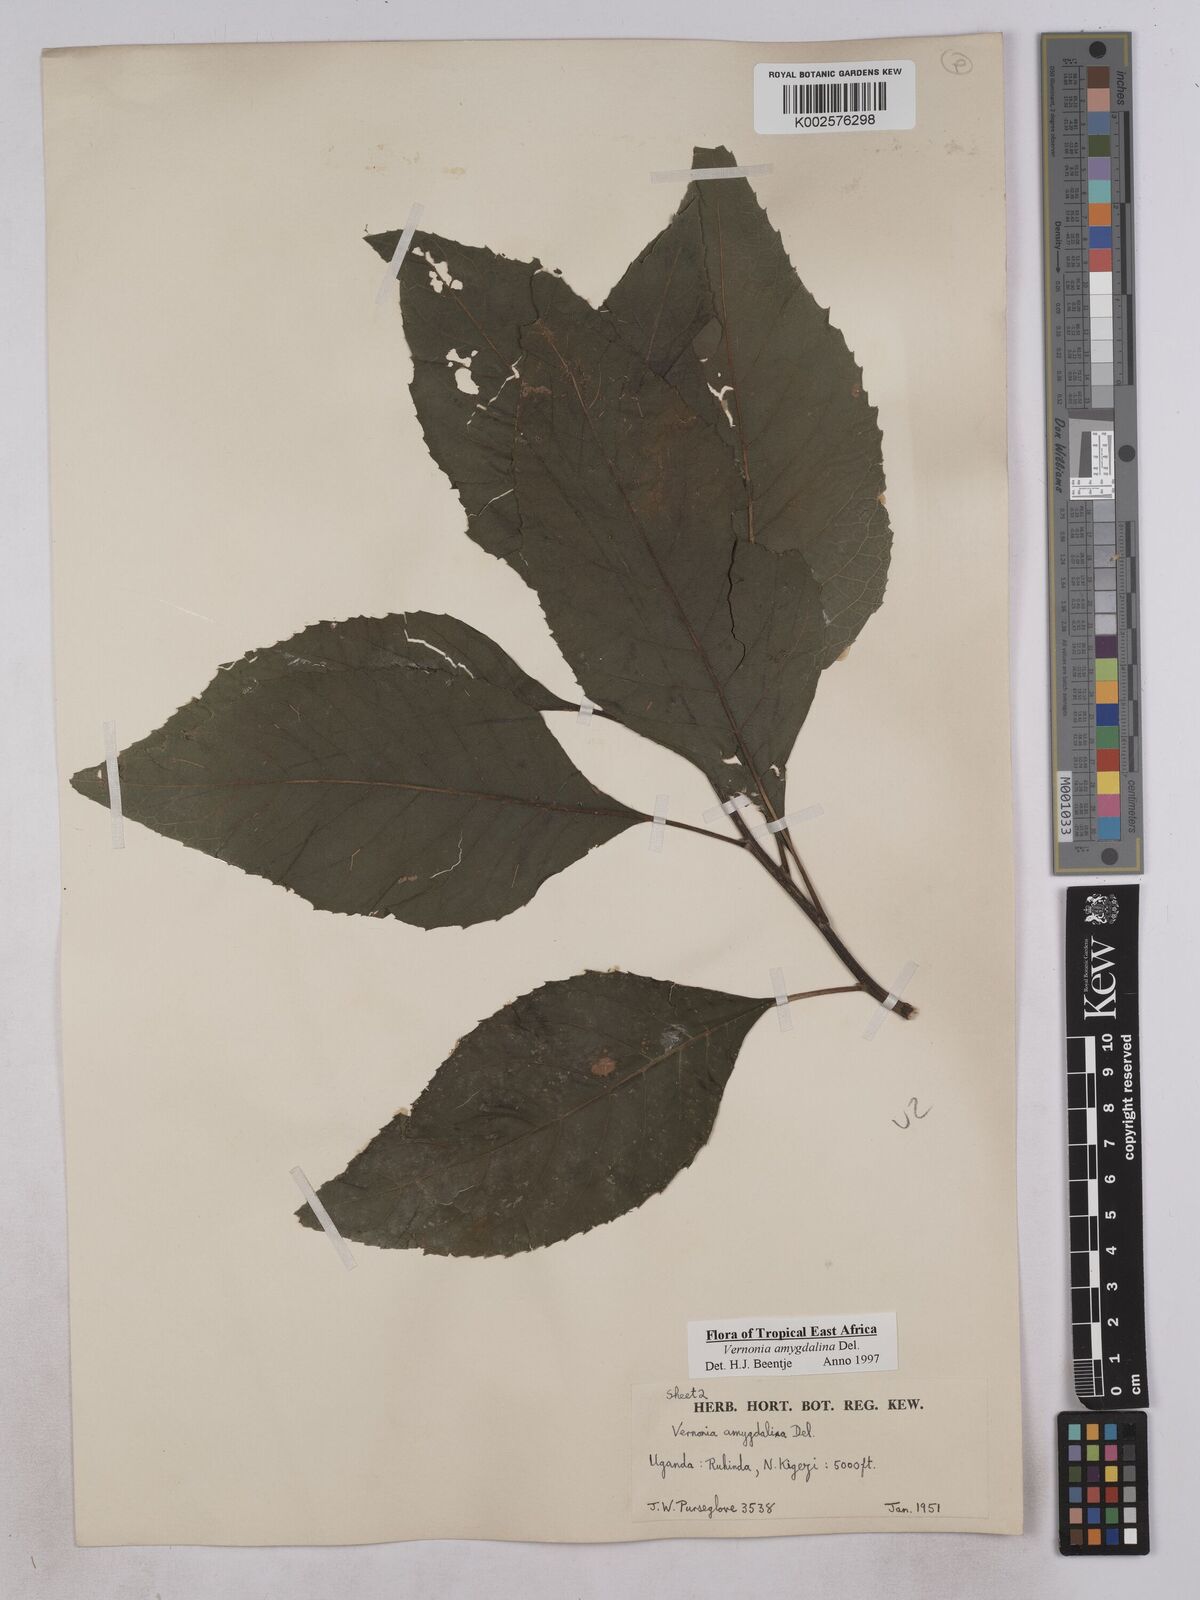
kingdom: Plantae
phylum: Tracheophyta
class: Magnoliopsida
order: Asterales
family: Asteraceae
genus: Gymnanthemum
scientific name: Gymnanthemum amygdalinum
